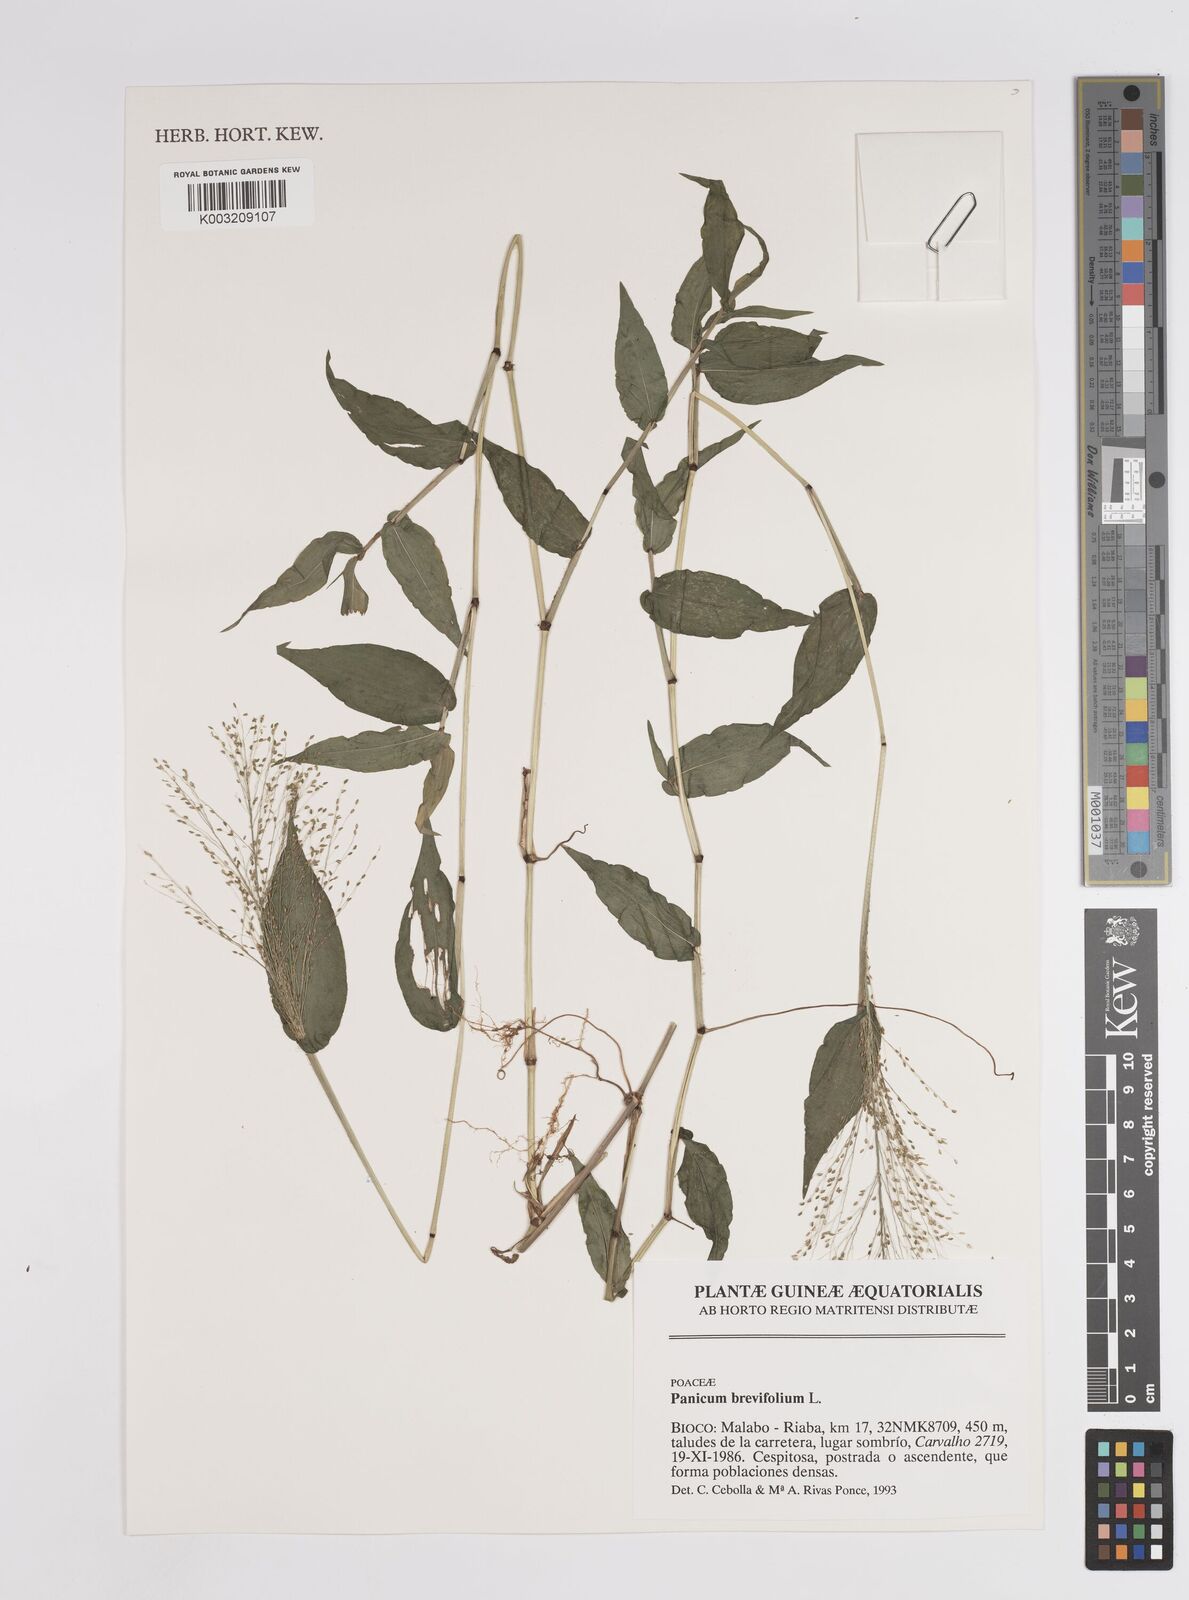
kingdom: Plantae
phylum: Tracheophyta
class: Liliopsida
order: Poales
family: Poaceae
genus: Panicum
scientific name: Panicum brevifolium
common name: Shortleaf panic grass
